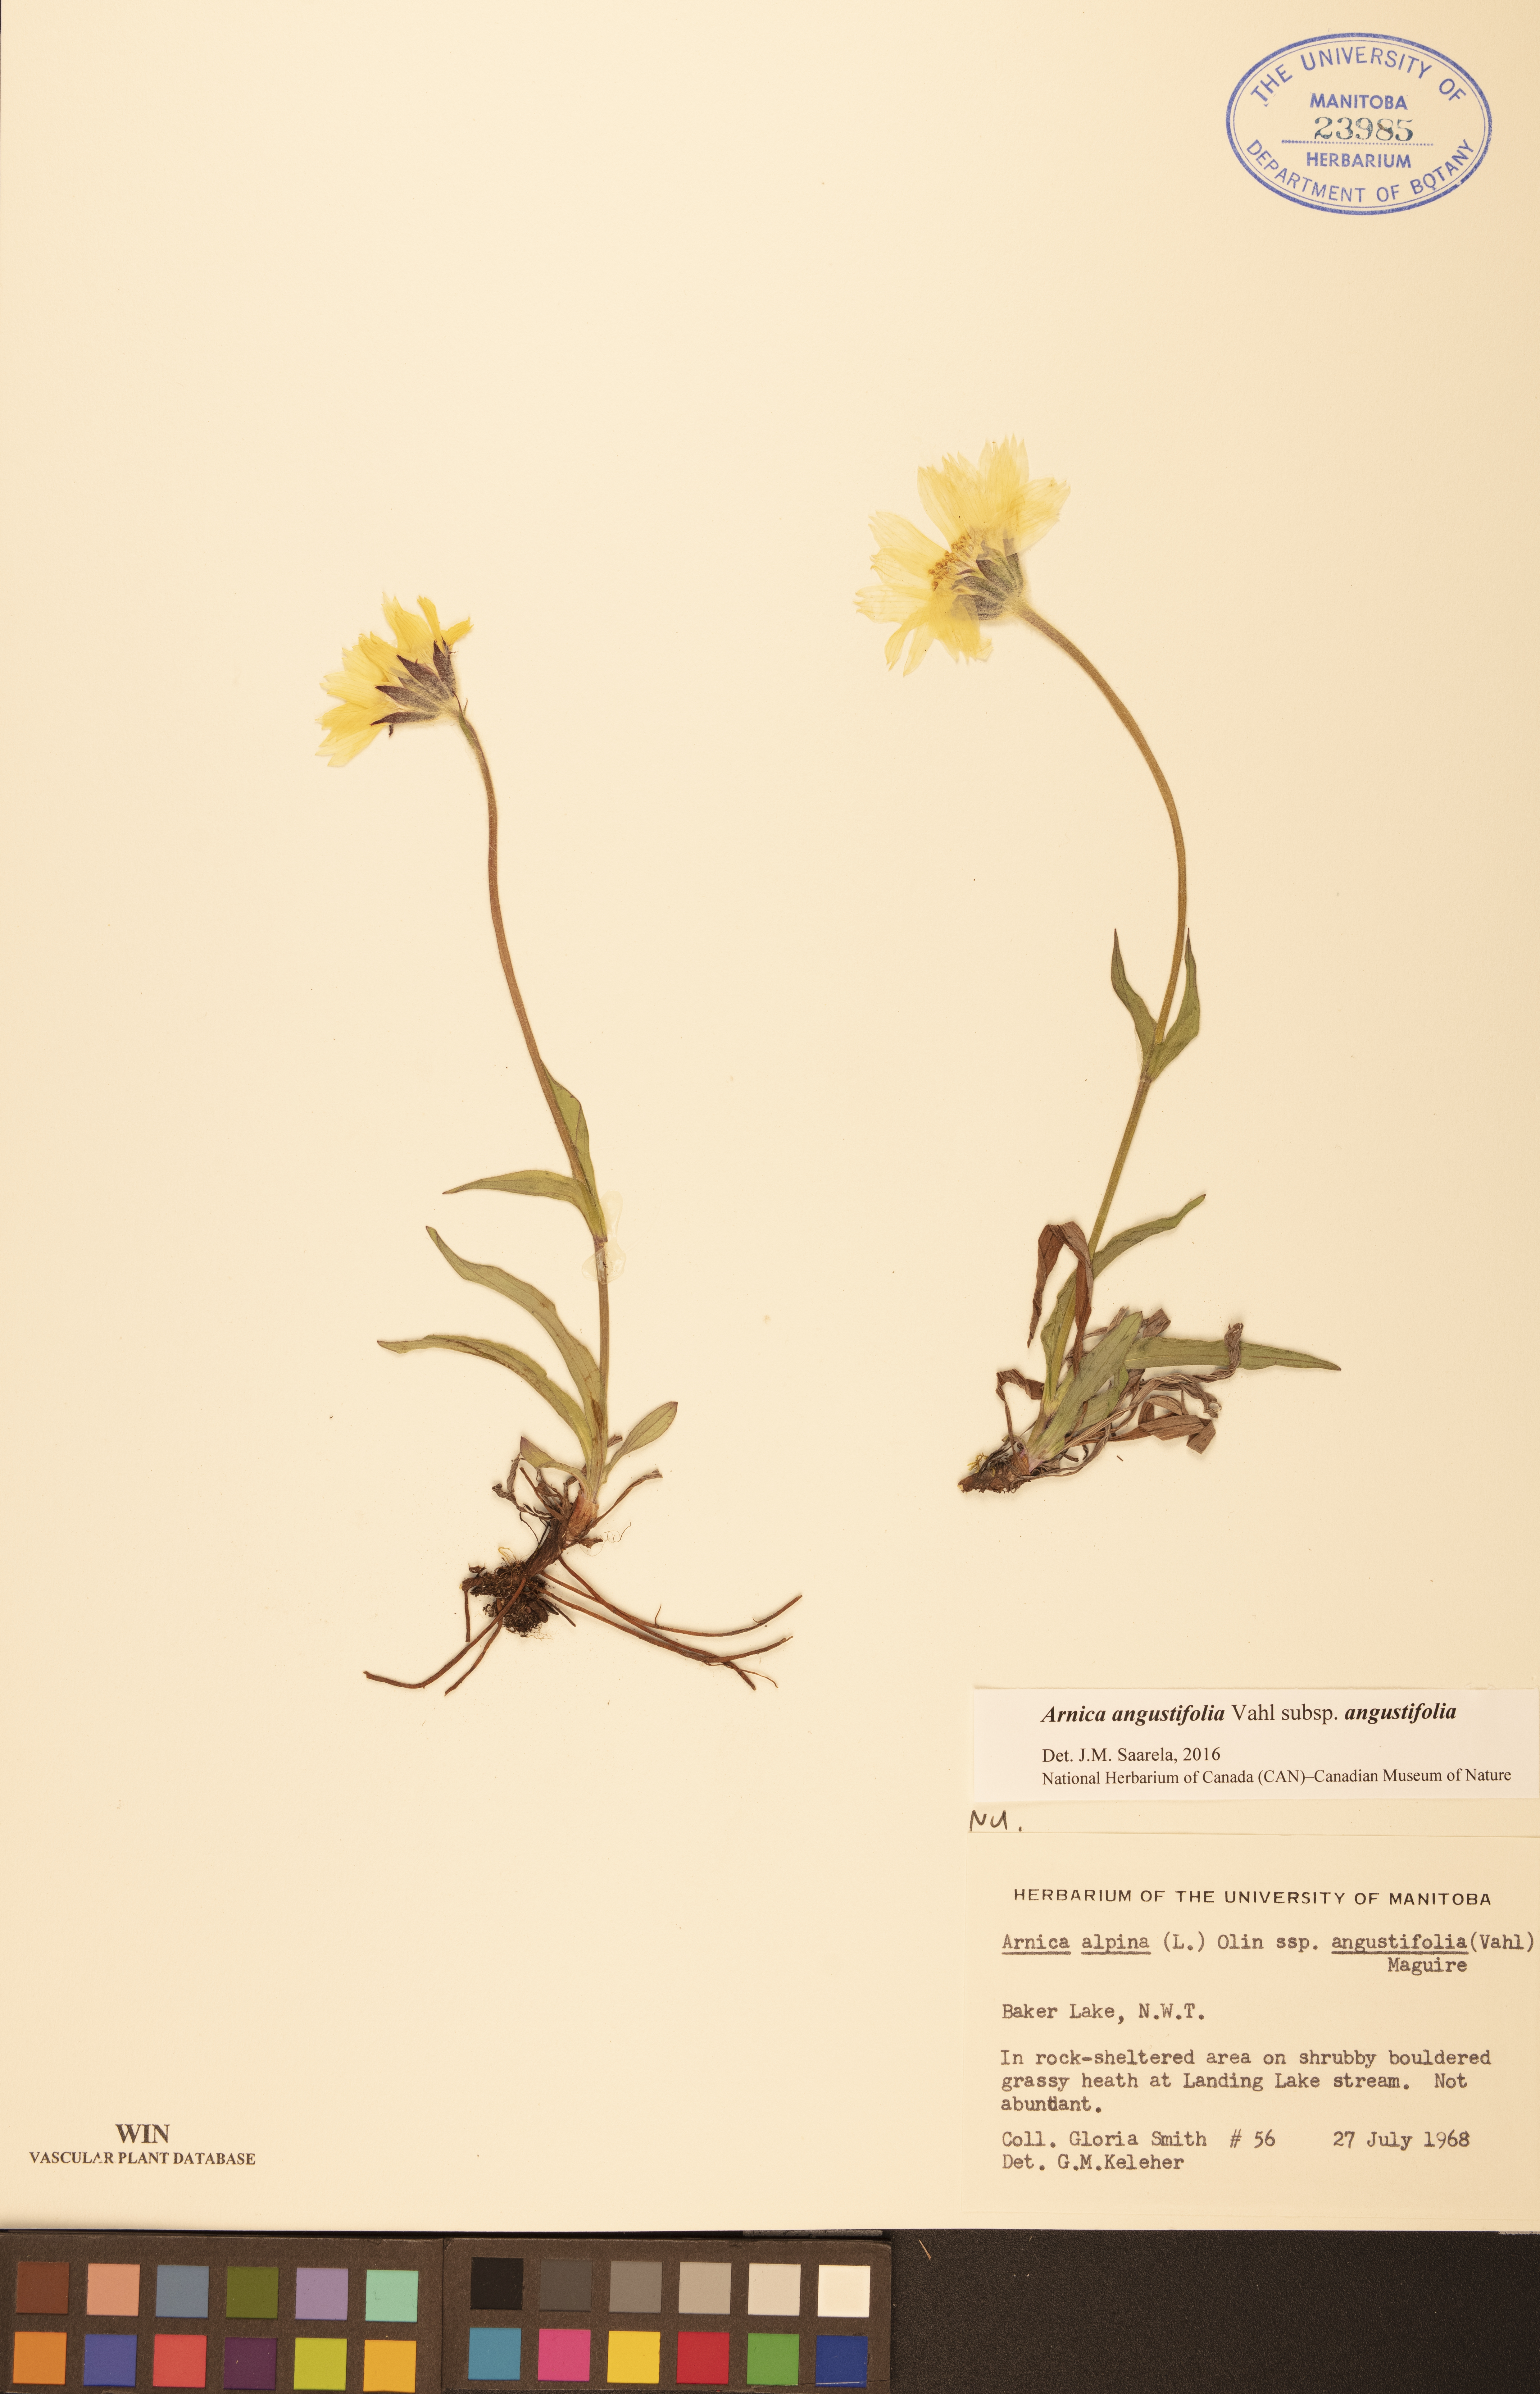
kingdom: Plantae
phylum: Tracheophyta
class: Magnoliopsida
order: Asterales
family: Asteraceae
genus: Arnica
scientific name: Arnica angustifolia
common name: Arctic arnica
